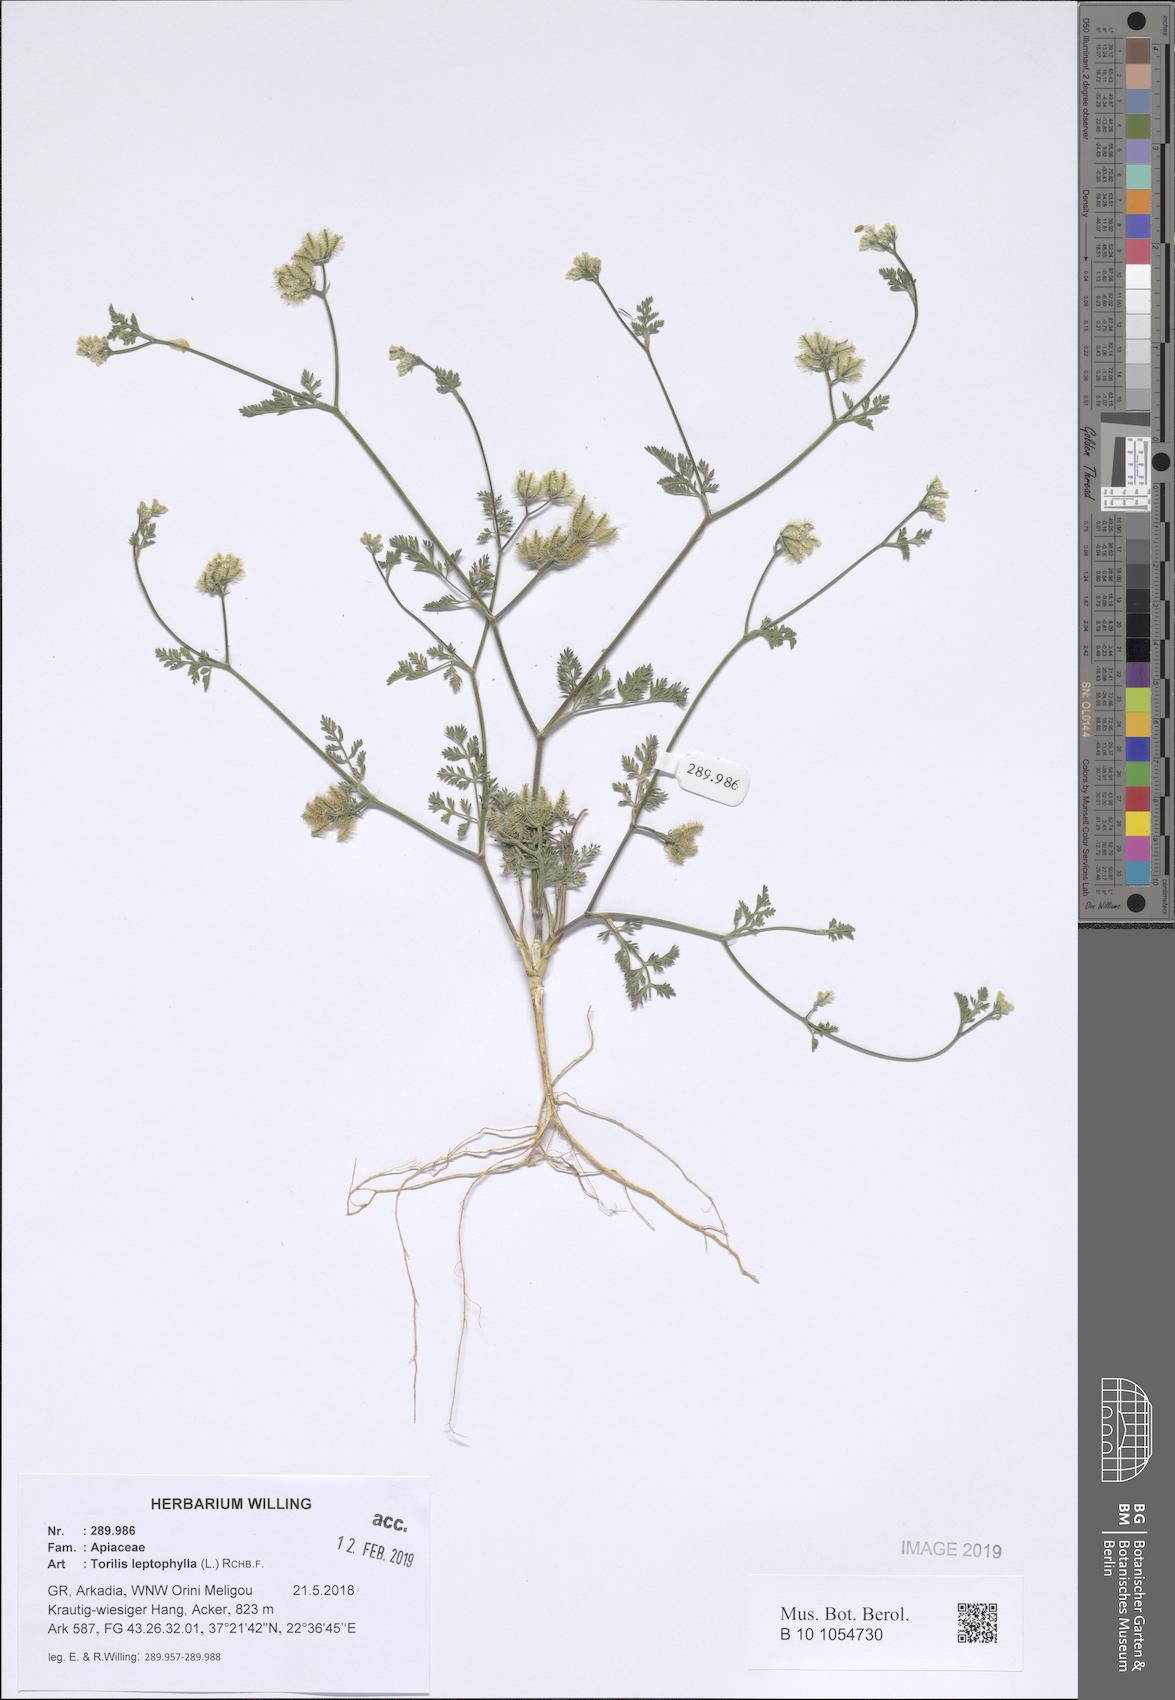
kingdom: Plantae
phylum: Tracheophyta
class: Magnoliopsida
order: Apiales
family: Apiaceae
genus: Torilis
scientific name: Torilis leptophylla
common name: Bristlefruit hedgeparsley
